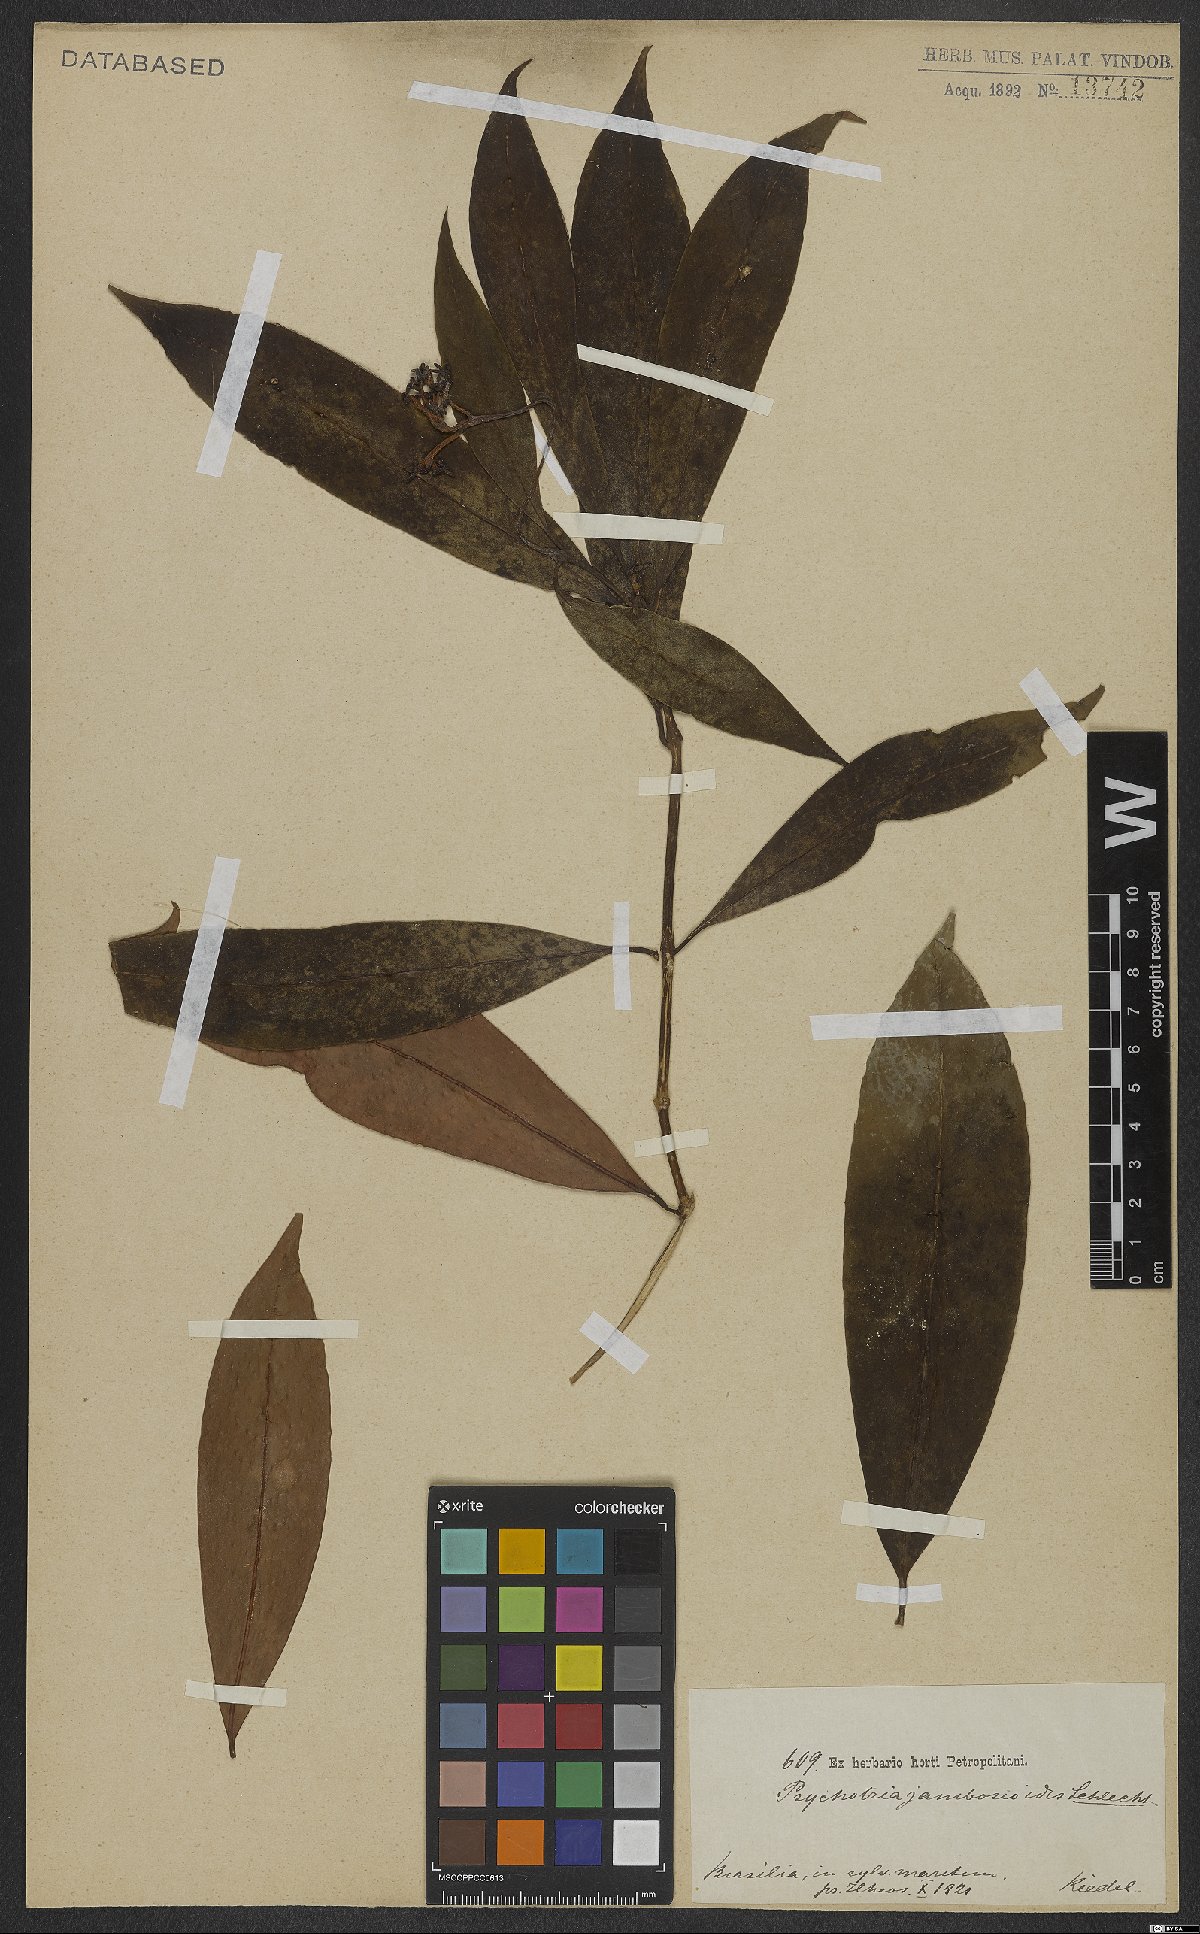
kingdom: Plantae
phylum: Tracheophyta
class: Magnoliopsida
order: Gentianales
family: Rubiaceae
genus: Palicourea
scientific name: Palicourea jambosioides
